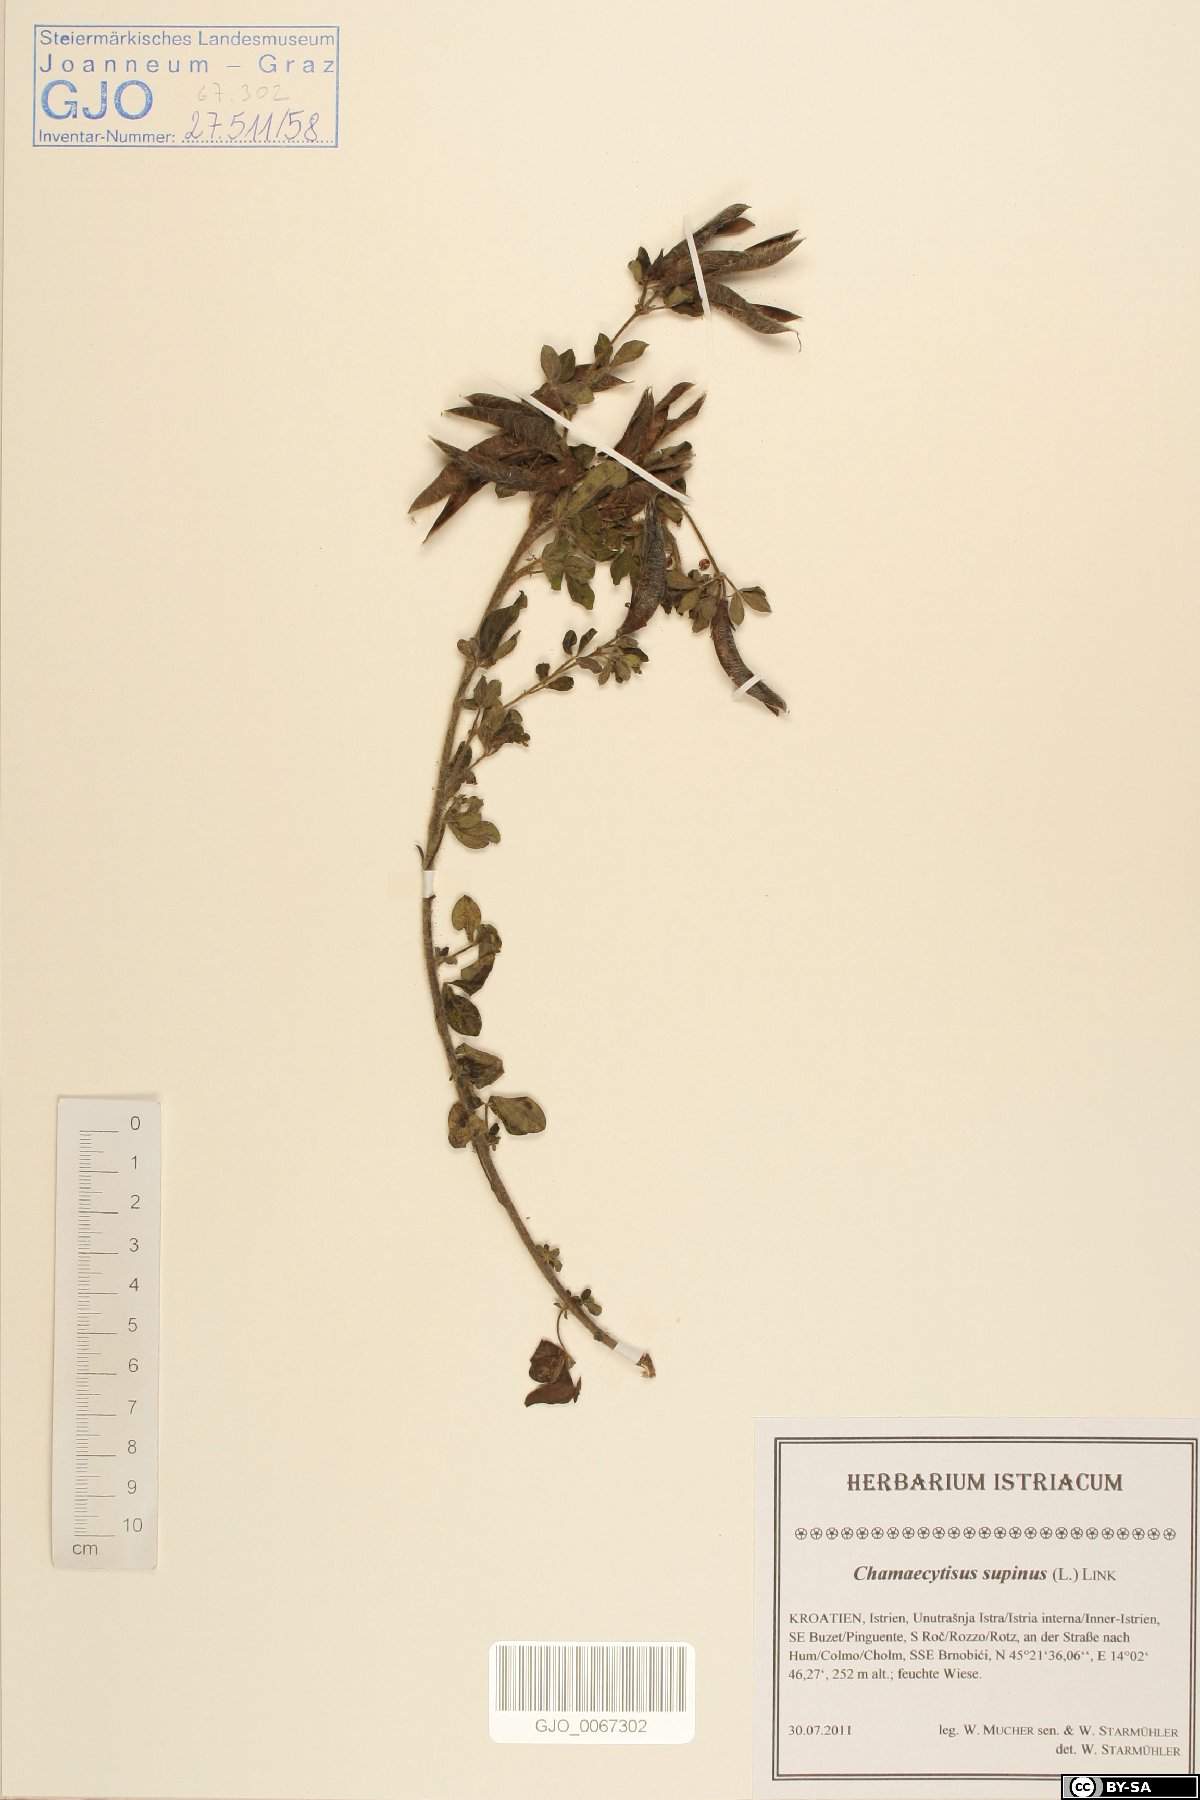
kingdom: Plantae
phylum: Tracheophyta
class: Magnoliopsida
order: Fabales
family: Fabaceae
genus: Chamaecytisus
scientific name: Chamaecytisus supinus
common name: Clustered broom
